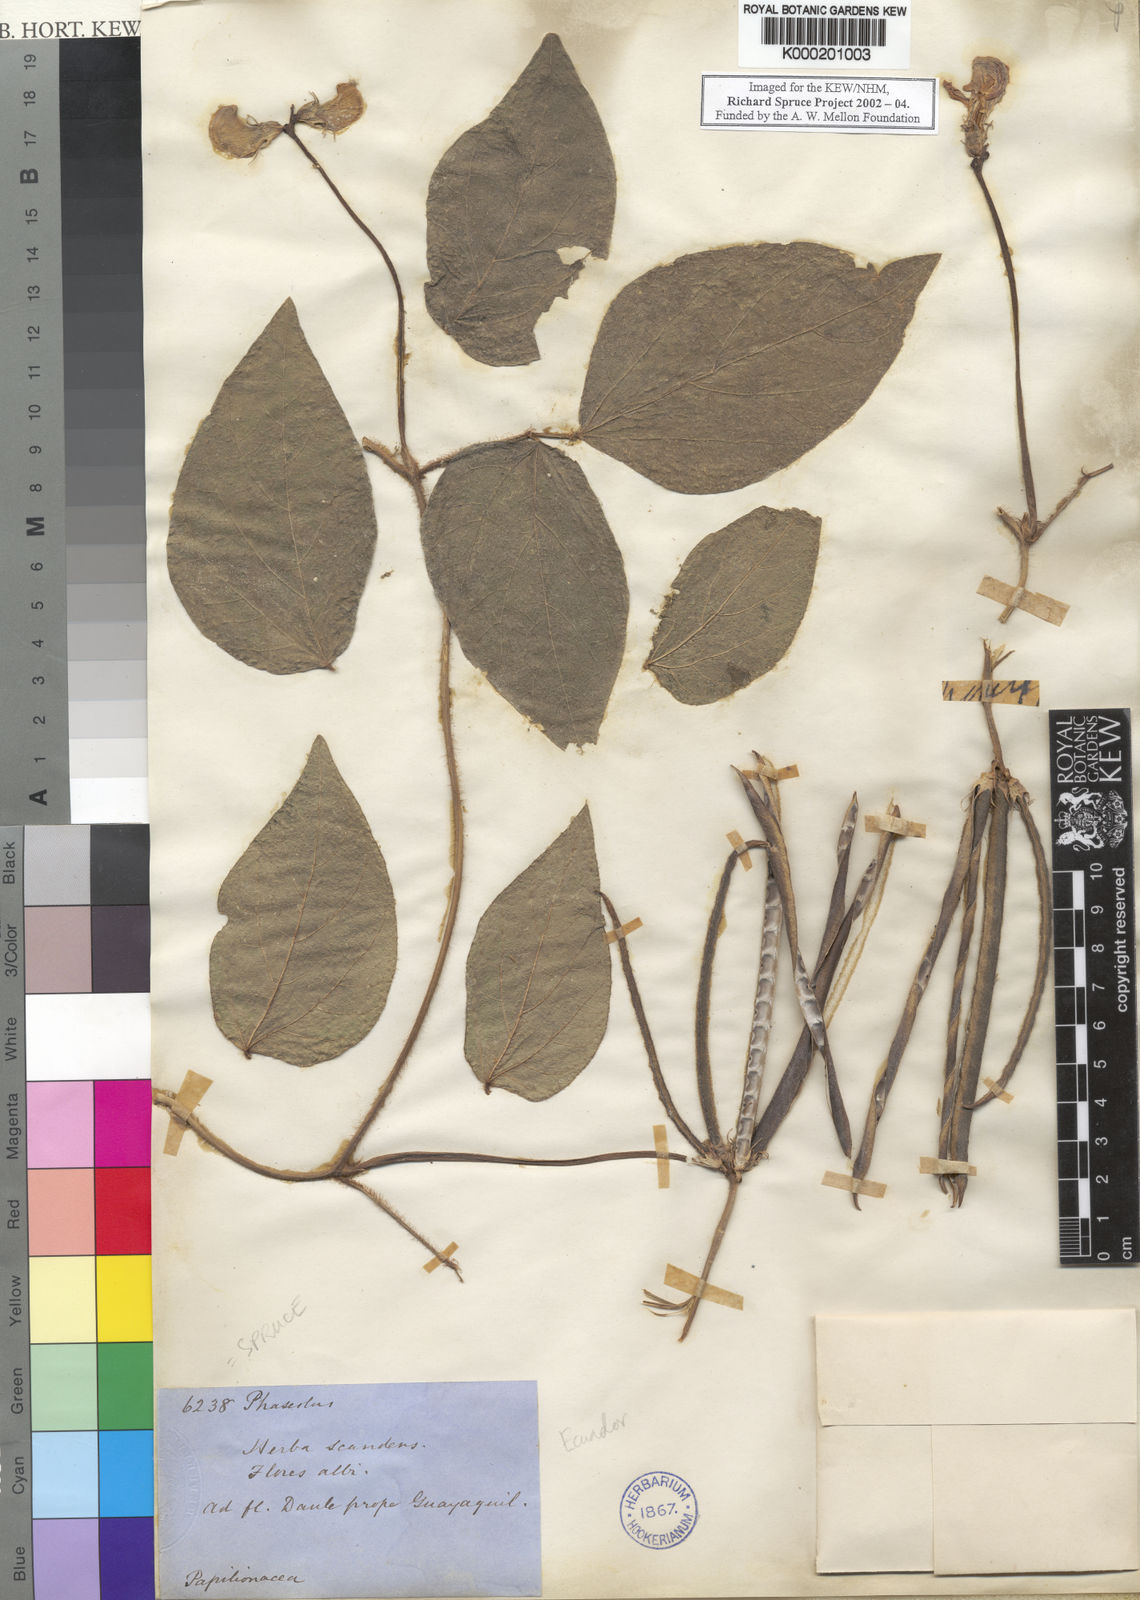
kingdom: Plantae
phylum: Tracheophyta
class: Magnoliopsida
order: Fabales
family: Fabaceae
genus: Vigna
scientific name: Vigna vexillata
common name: Zombi pea
